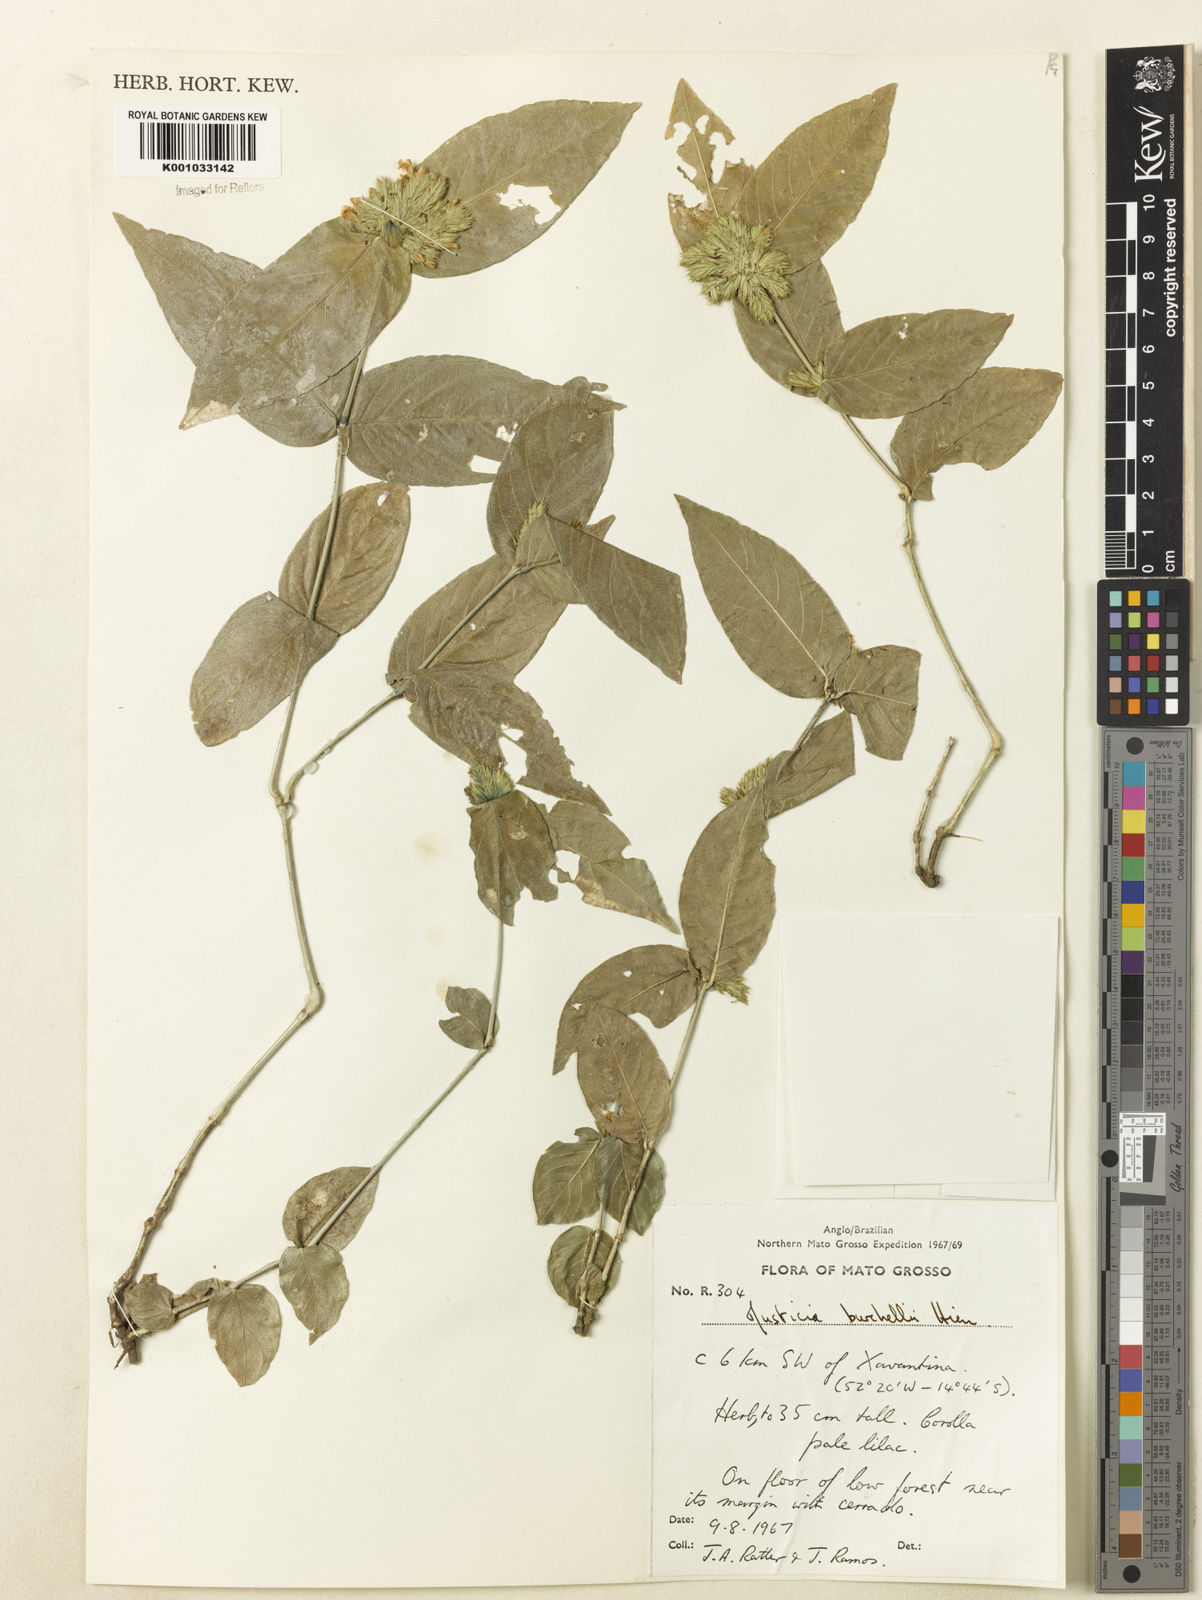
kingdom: Plantae
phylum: Tracheophyta
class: Magnoliopsida
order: Lamiales
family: Acanthaceae
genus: Justicia
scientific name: Justicia burchellii
